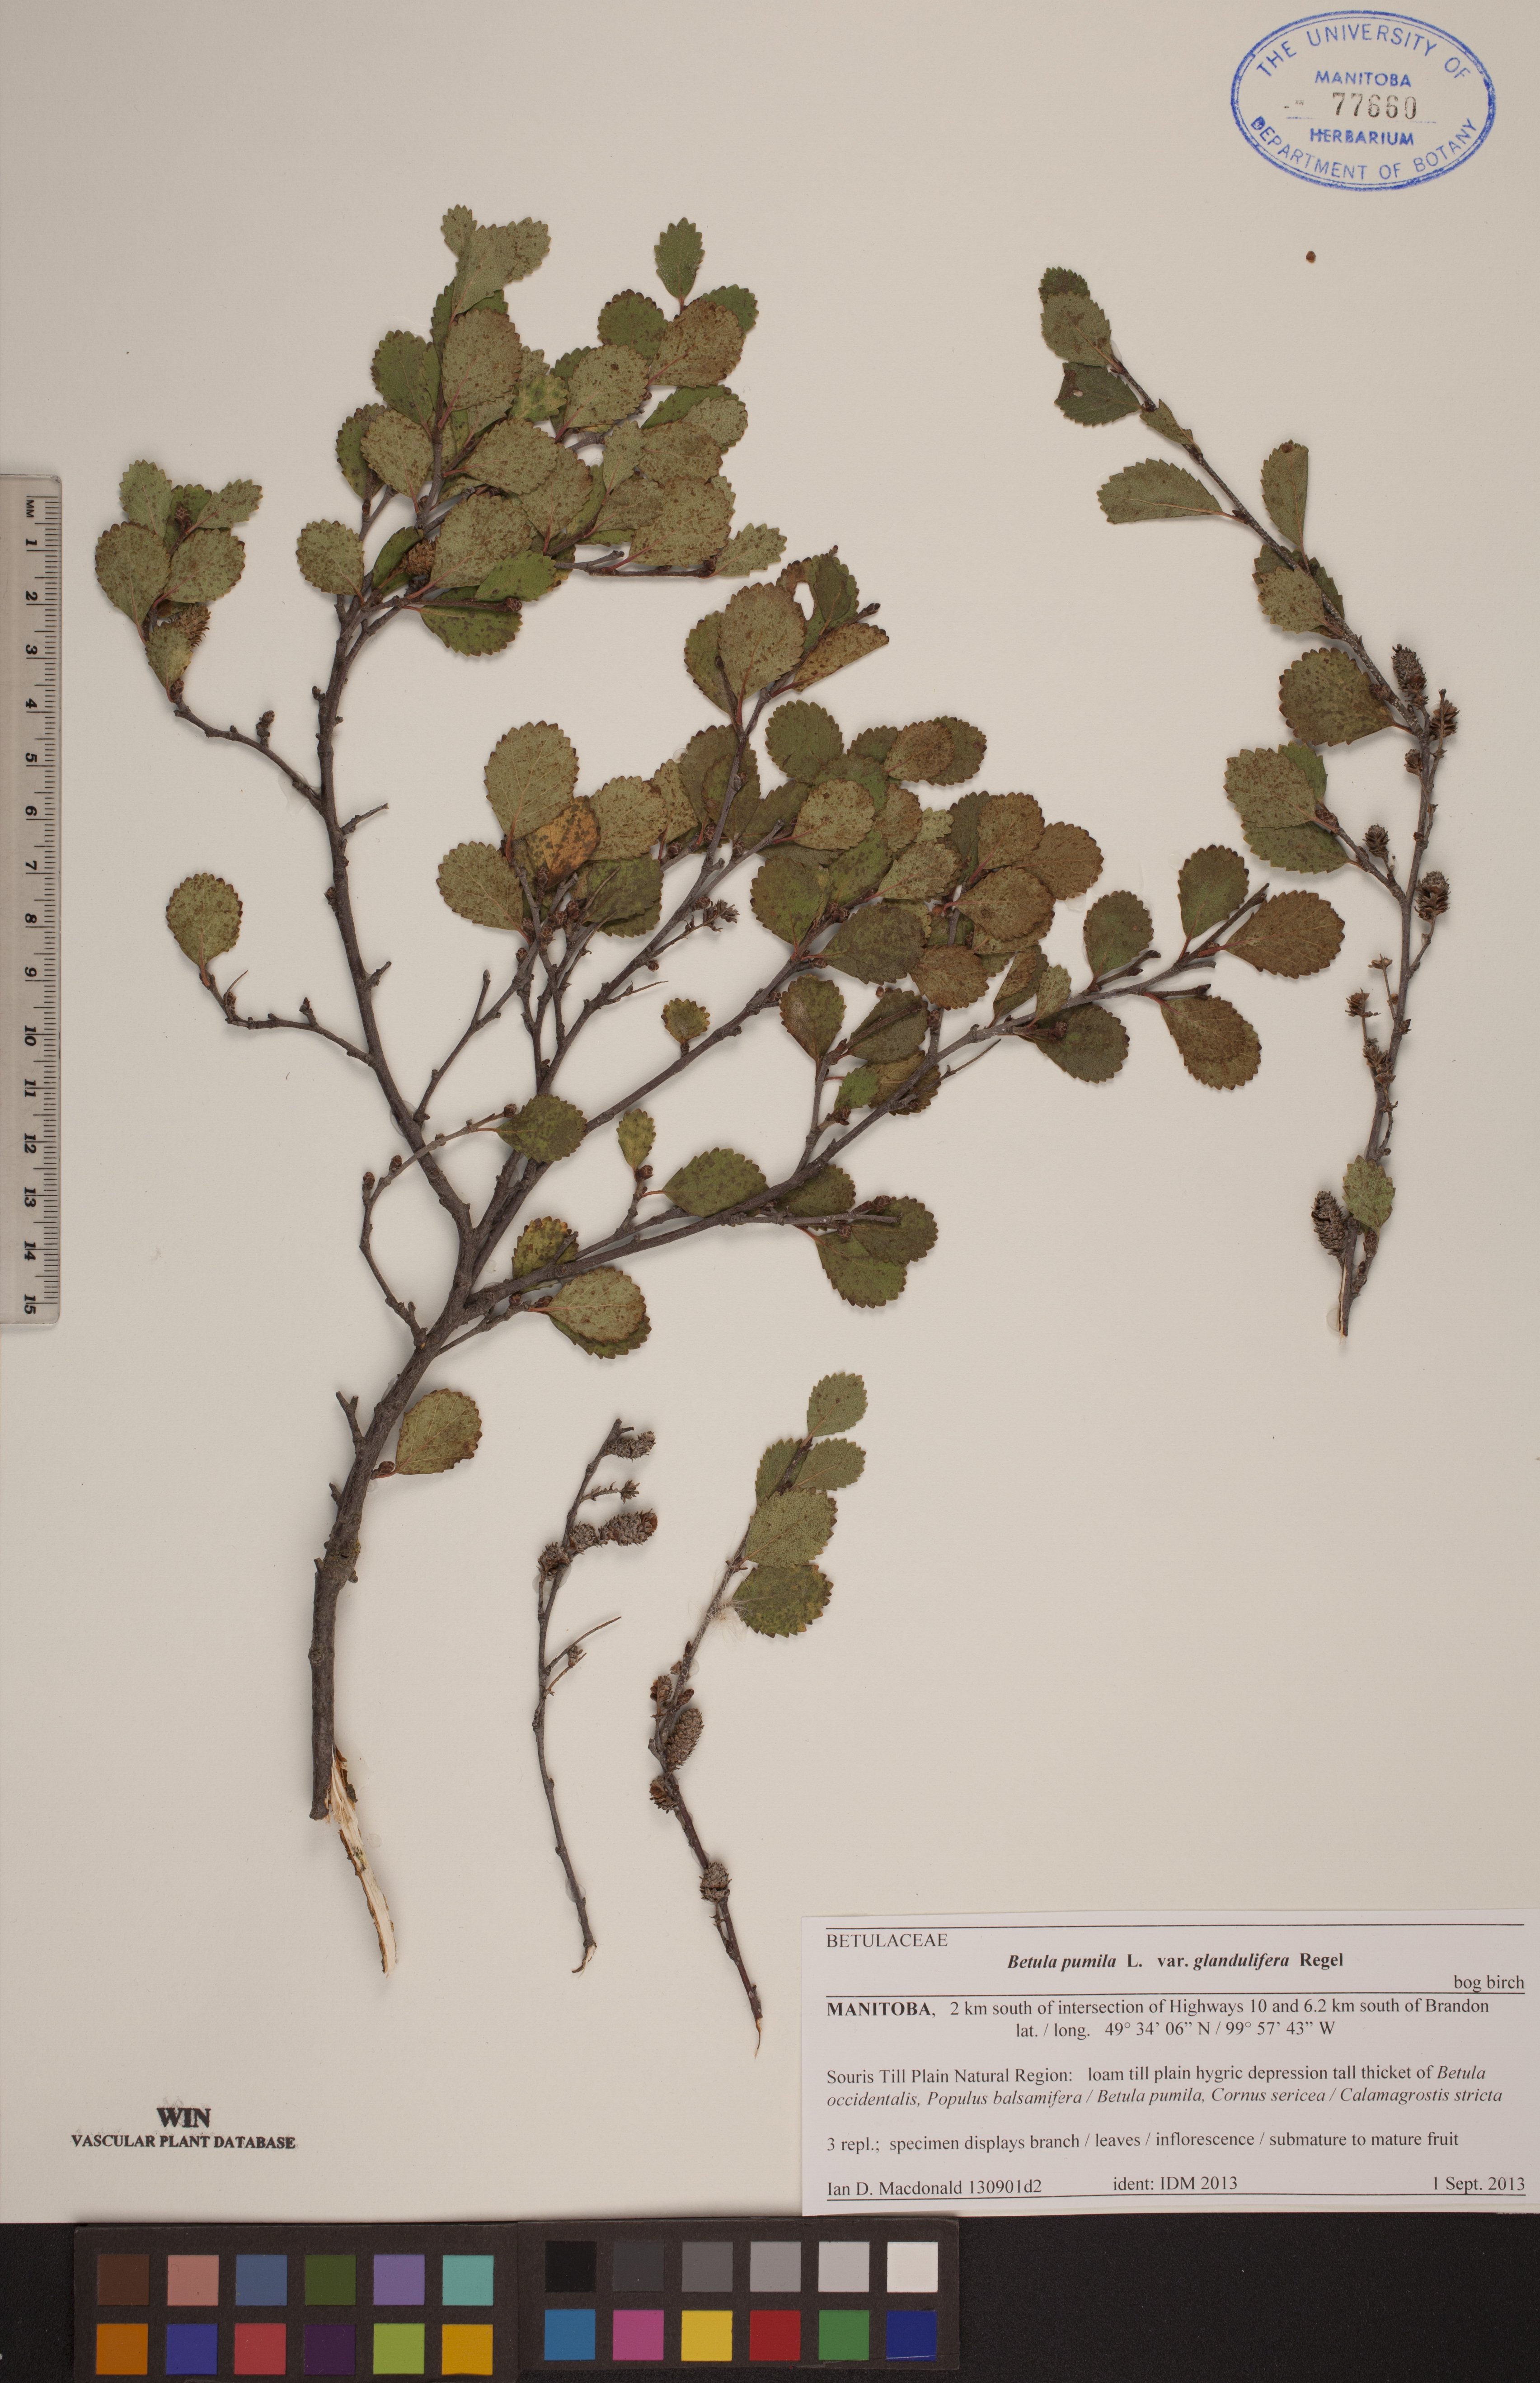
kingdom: Plantae
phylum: Tracheophyta
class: Magnoliopsida
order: Fagales
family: Betulaceae
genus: Betula
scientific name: Betula pumila
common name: Bog birch
